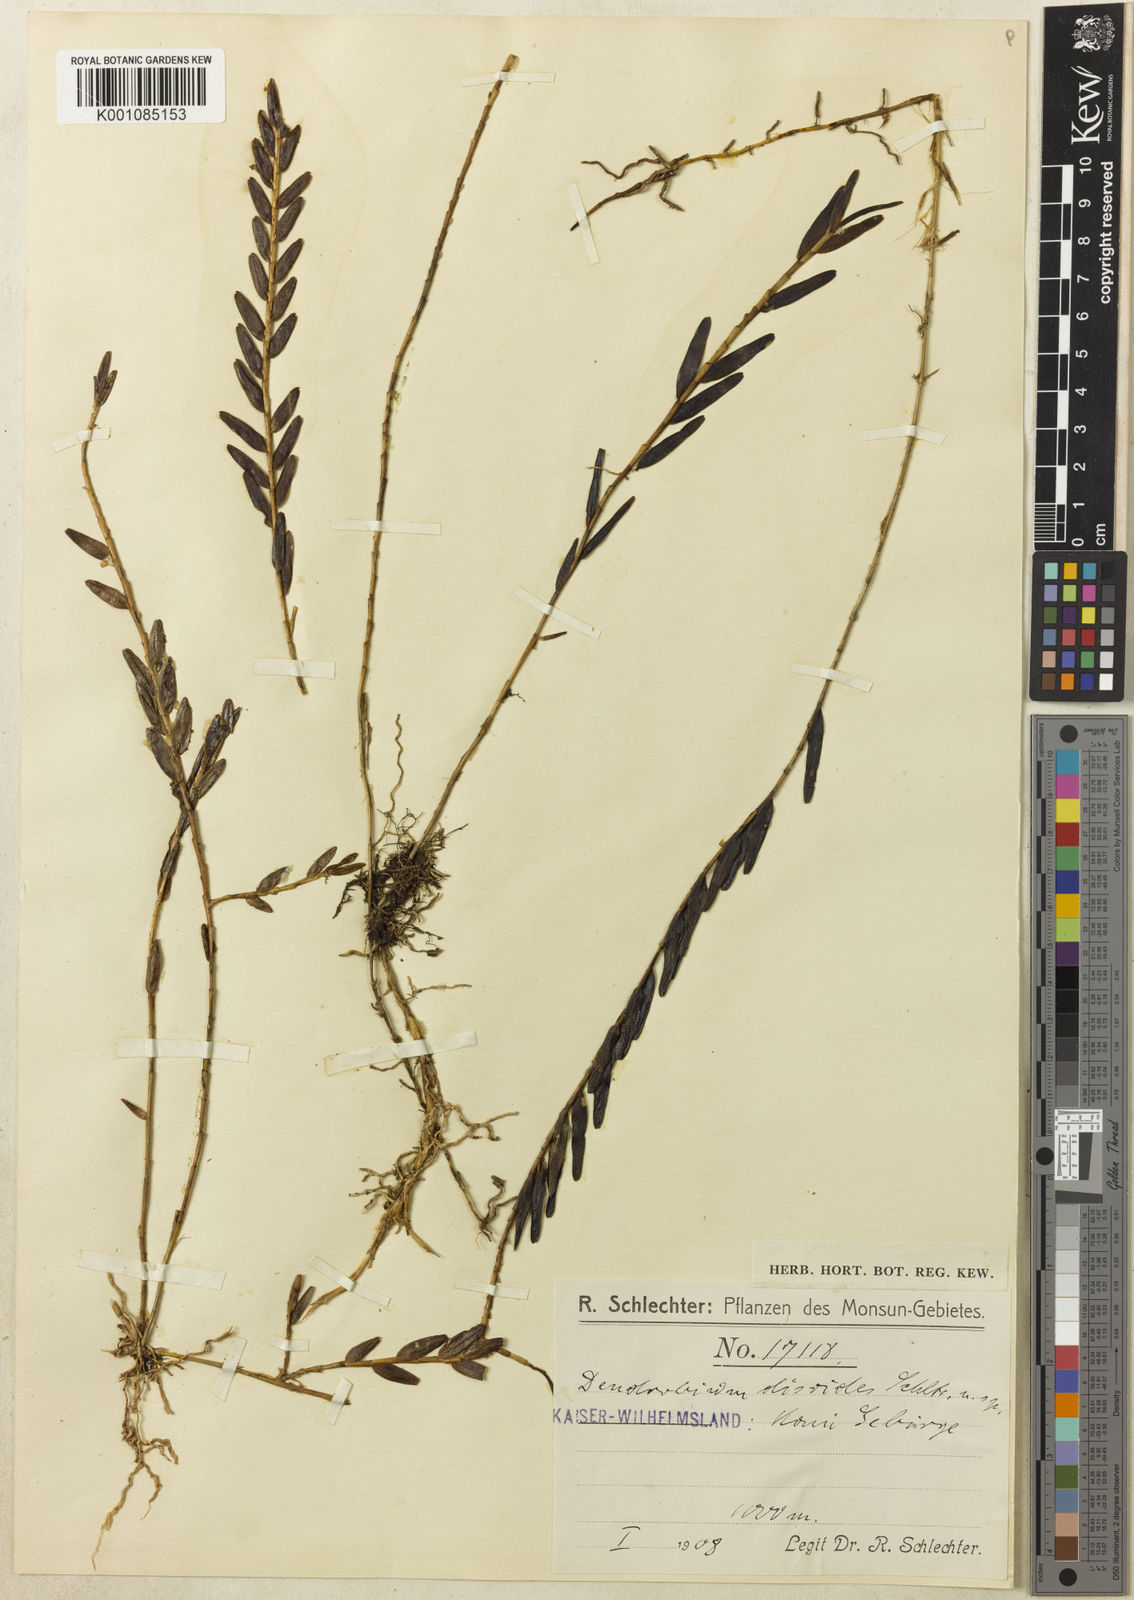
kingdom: Plantae
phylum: Tracheophyta
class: Liliopsida
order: Asparagales
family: Orchidaceae
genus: Dendrobium
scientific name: Dendrobium
